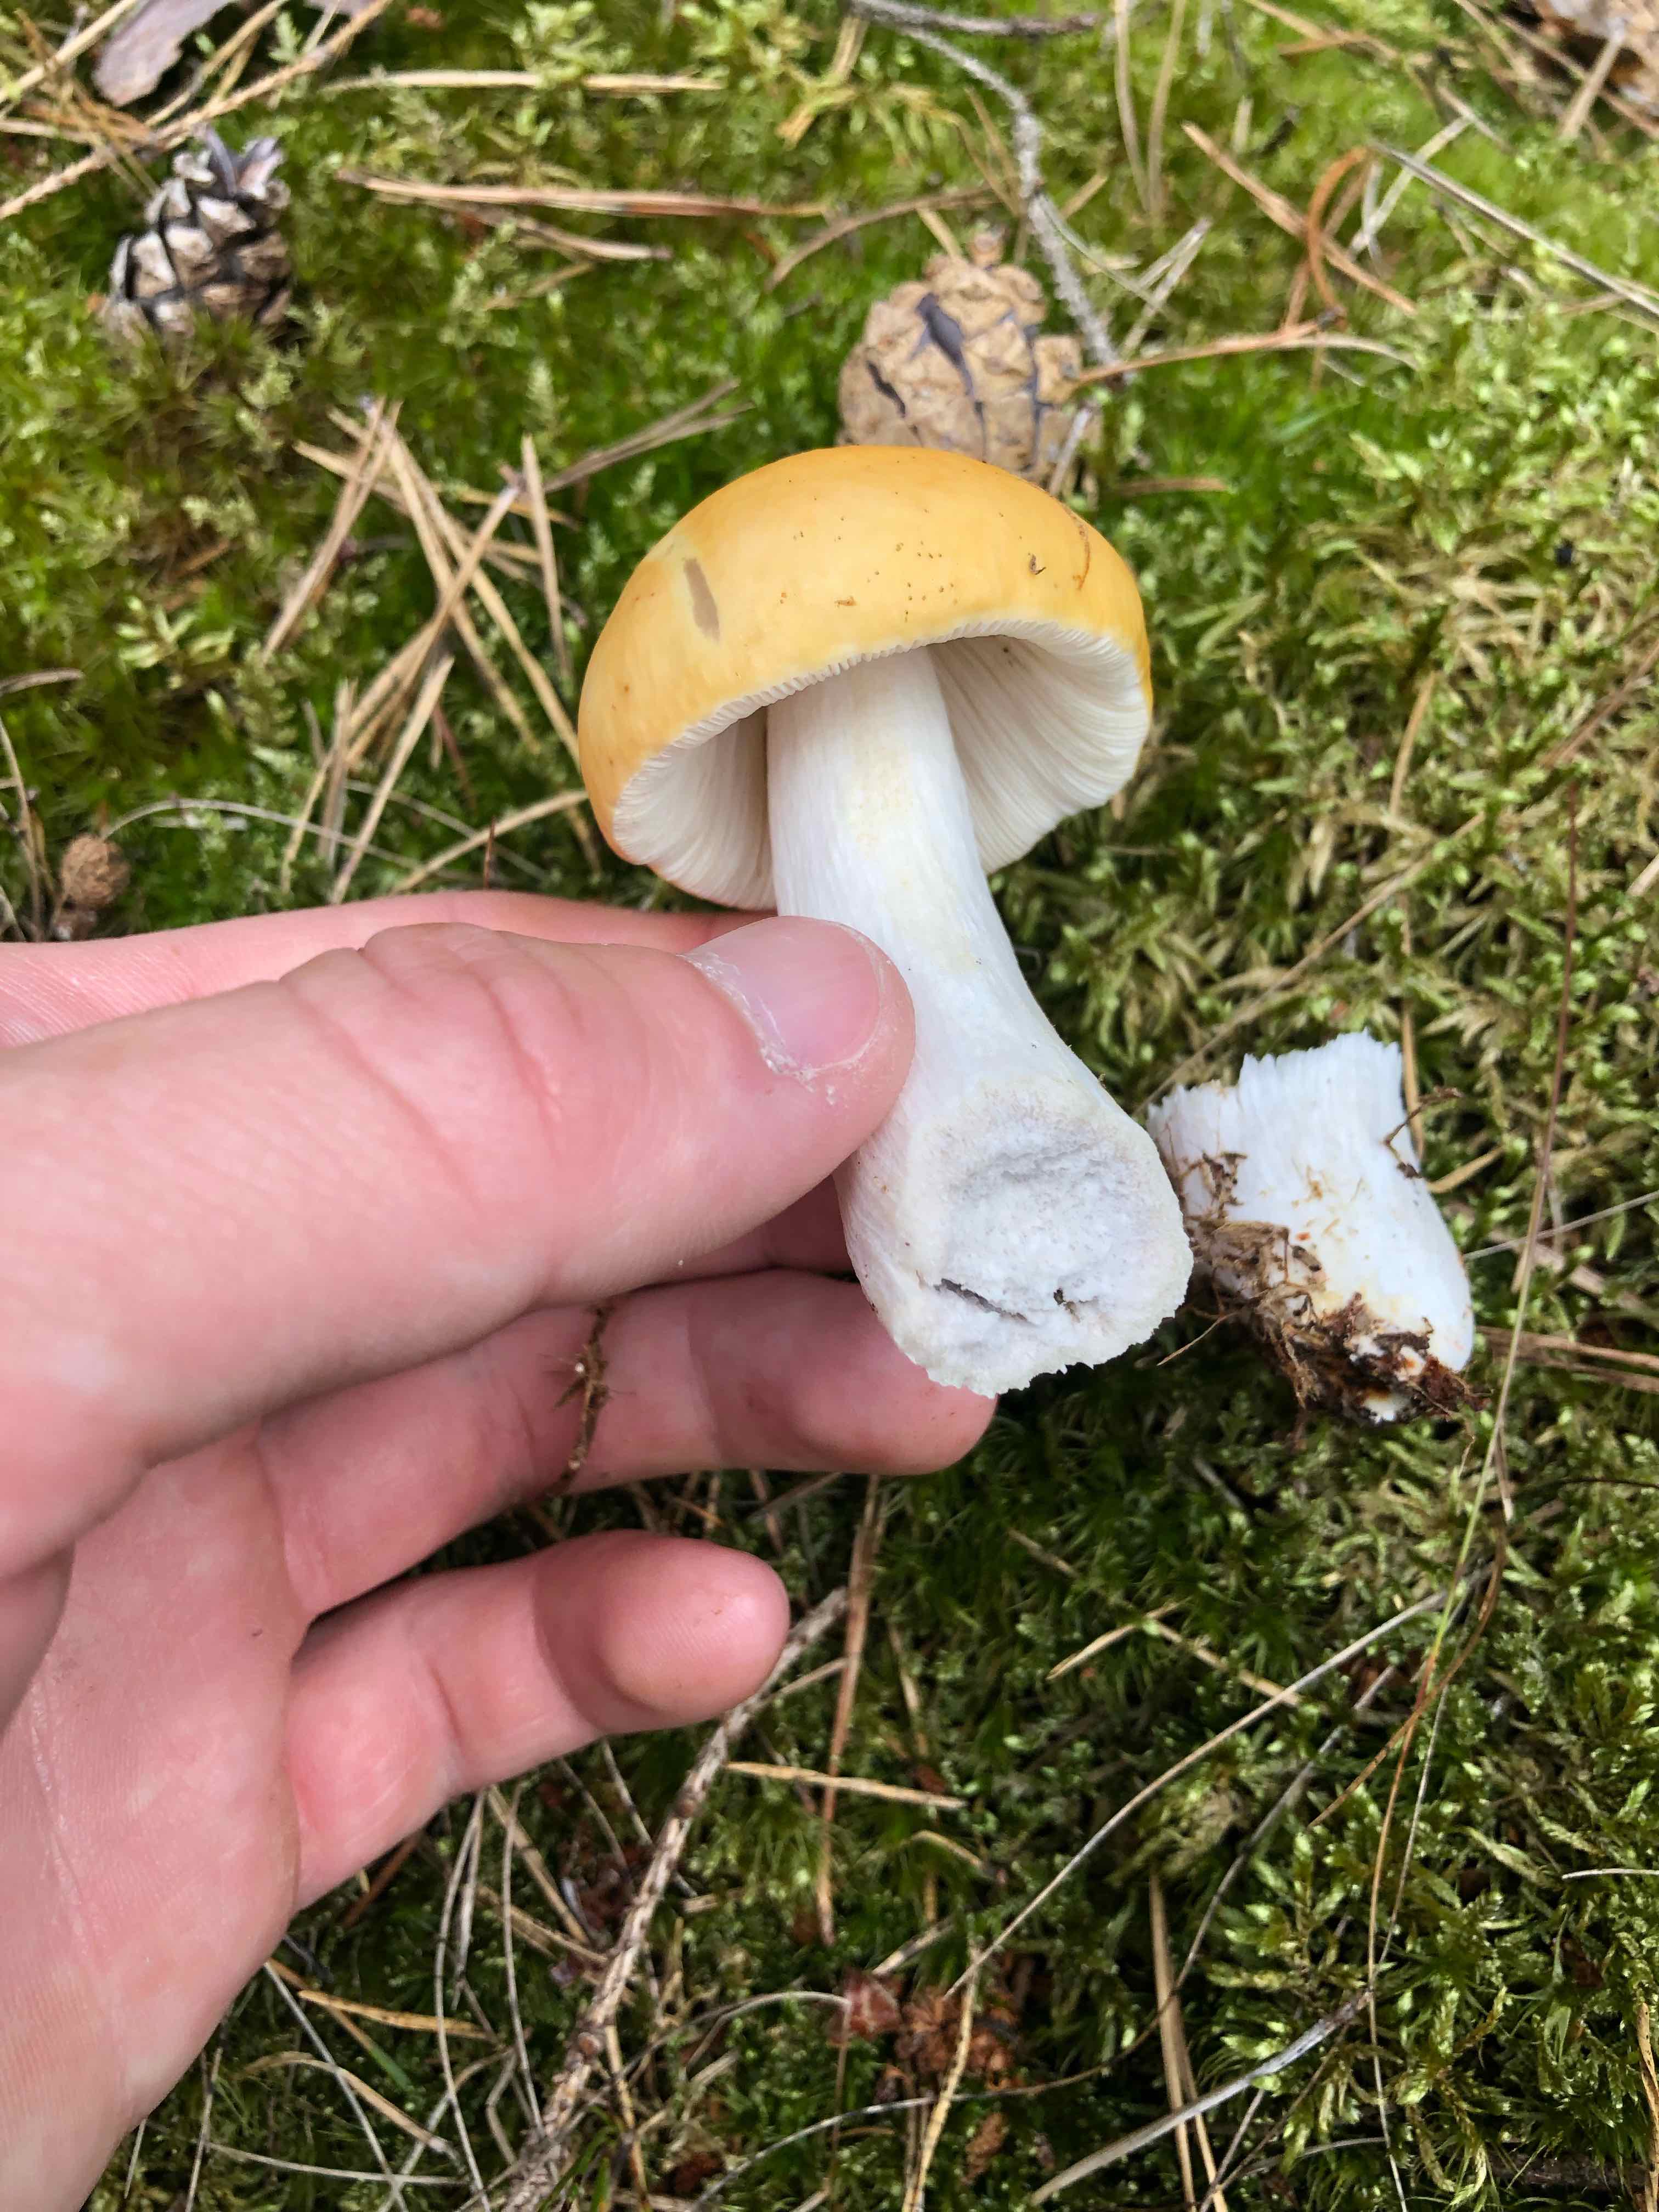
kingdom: Fungi
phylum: Basidiomycota
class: Agaricomycetes
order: Russulales
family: Russulaceae
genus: Russula
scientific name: Russula
